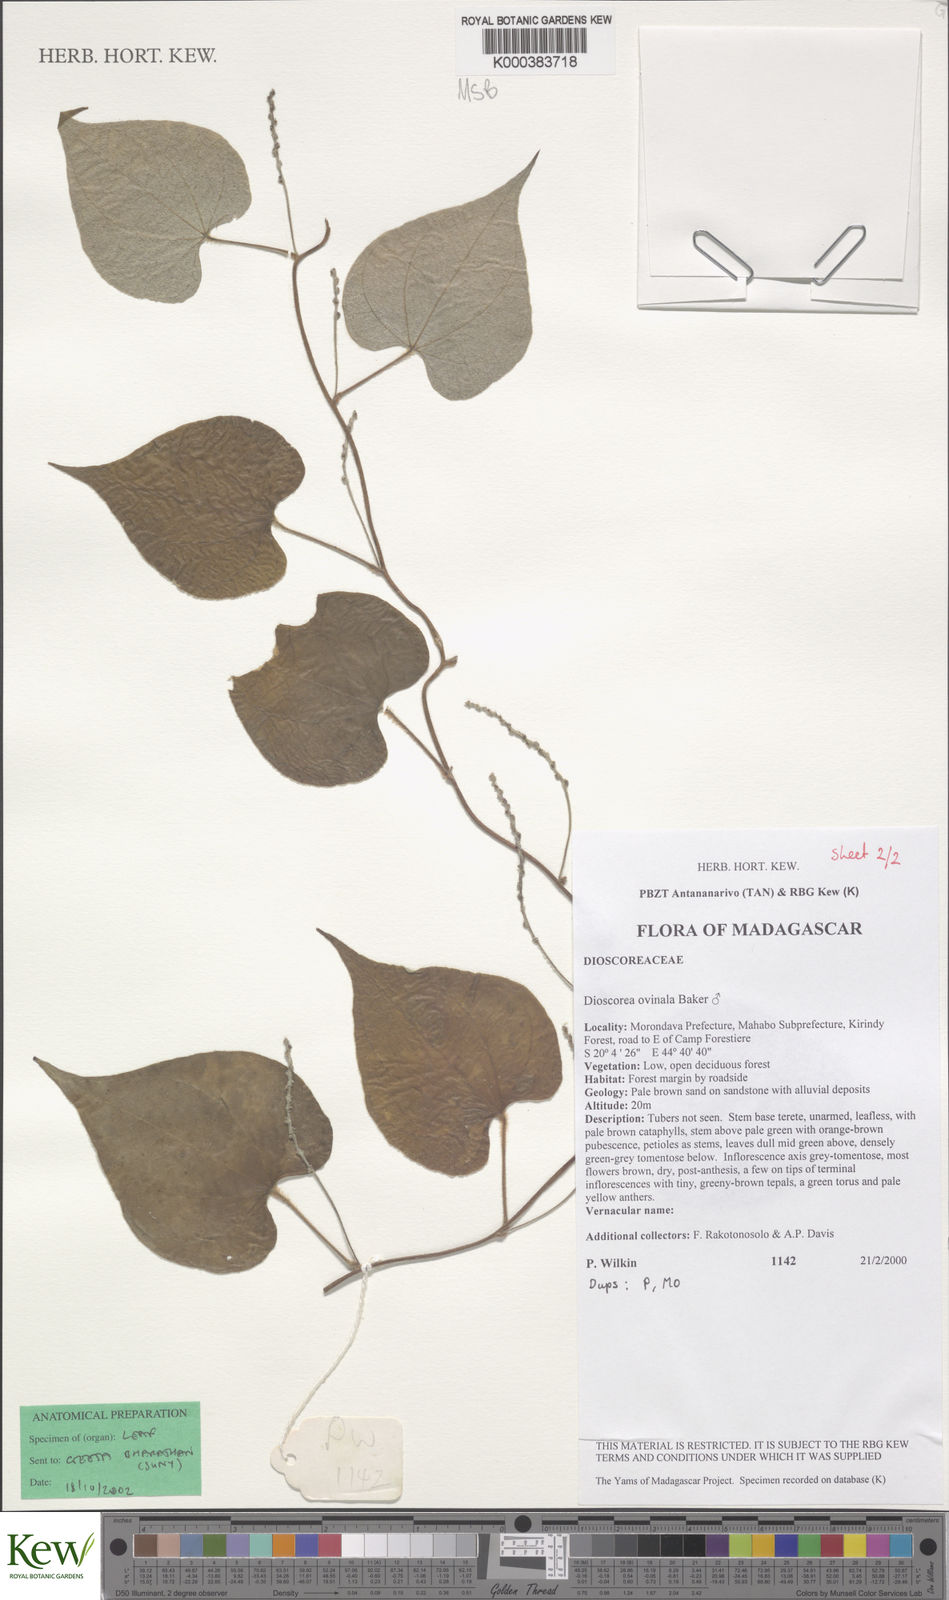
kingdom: Plantae
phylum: Tracheophyta
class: Liliopsida
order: Dioscoreales
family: Dioscoreaceae
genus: Dioscorea
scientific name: Dioscorea ovinala
